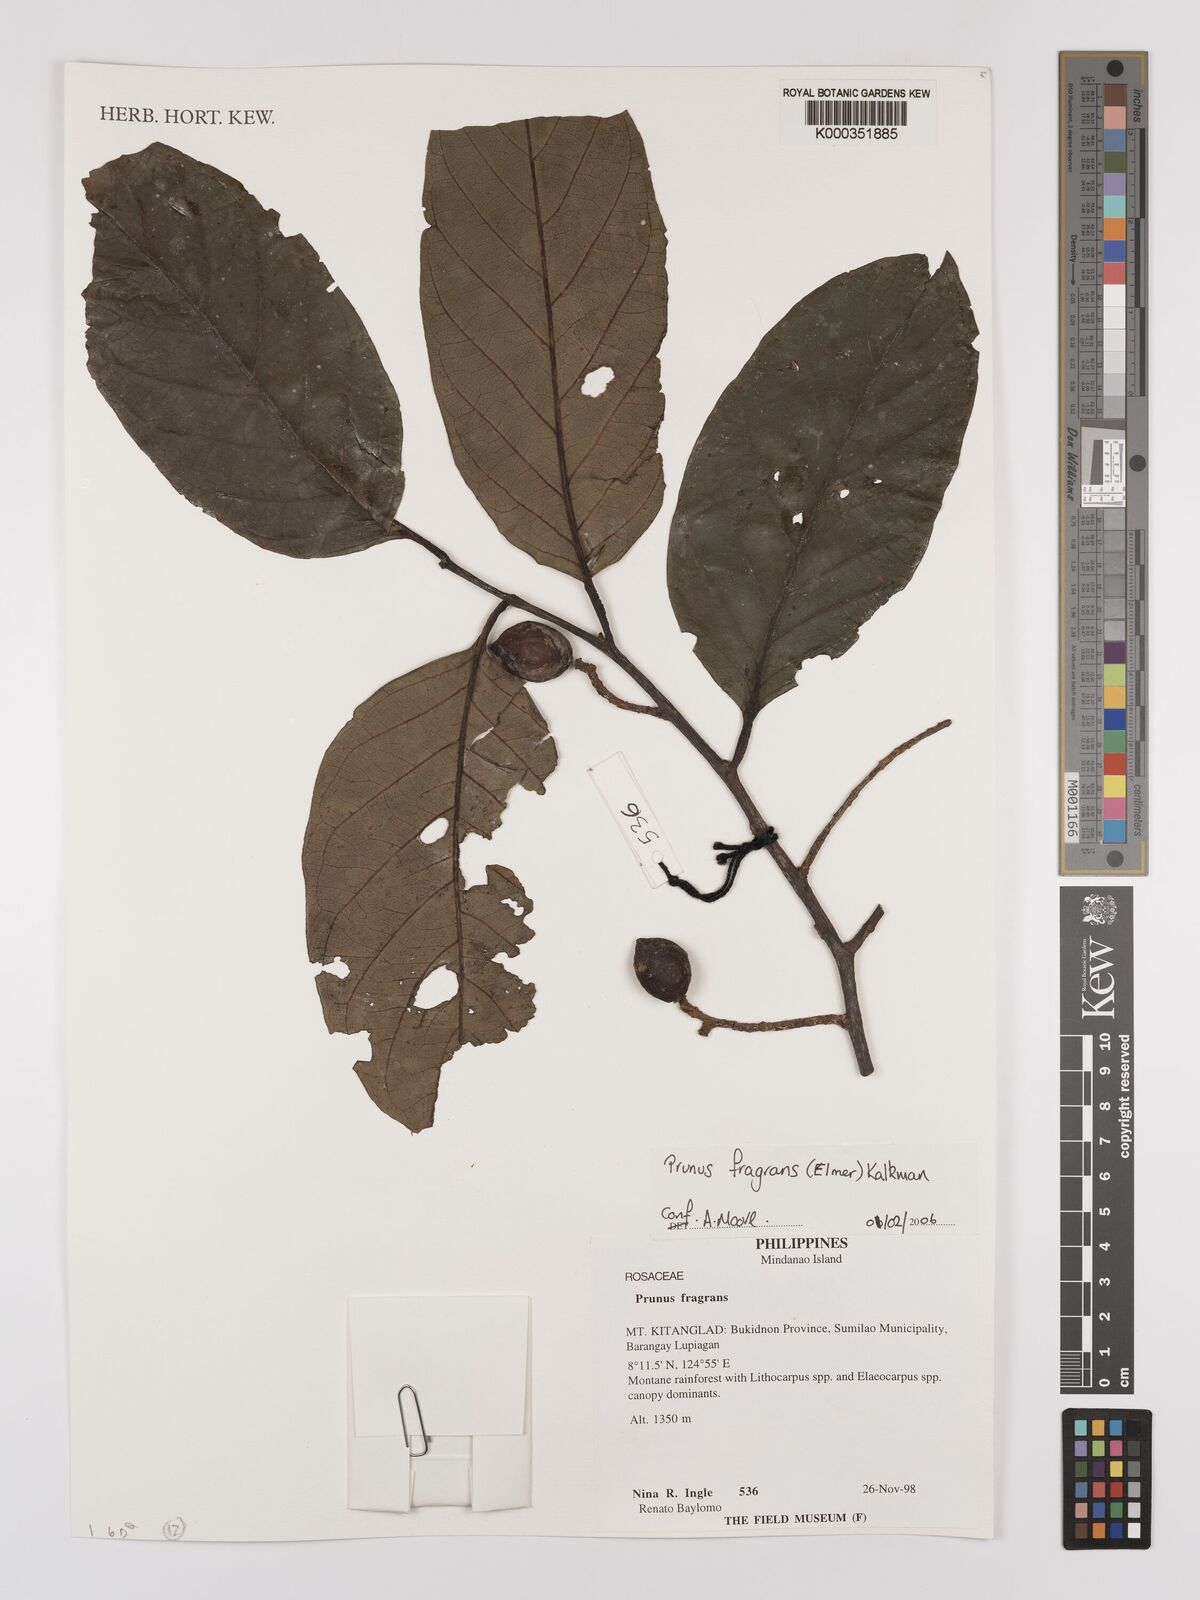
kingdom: Plantae
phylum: Tracheophyta
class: Magnoliopsida
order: Rosales
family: Rosaceae
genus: Prunus
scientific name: Prunus fragrans
